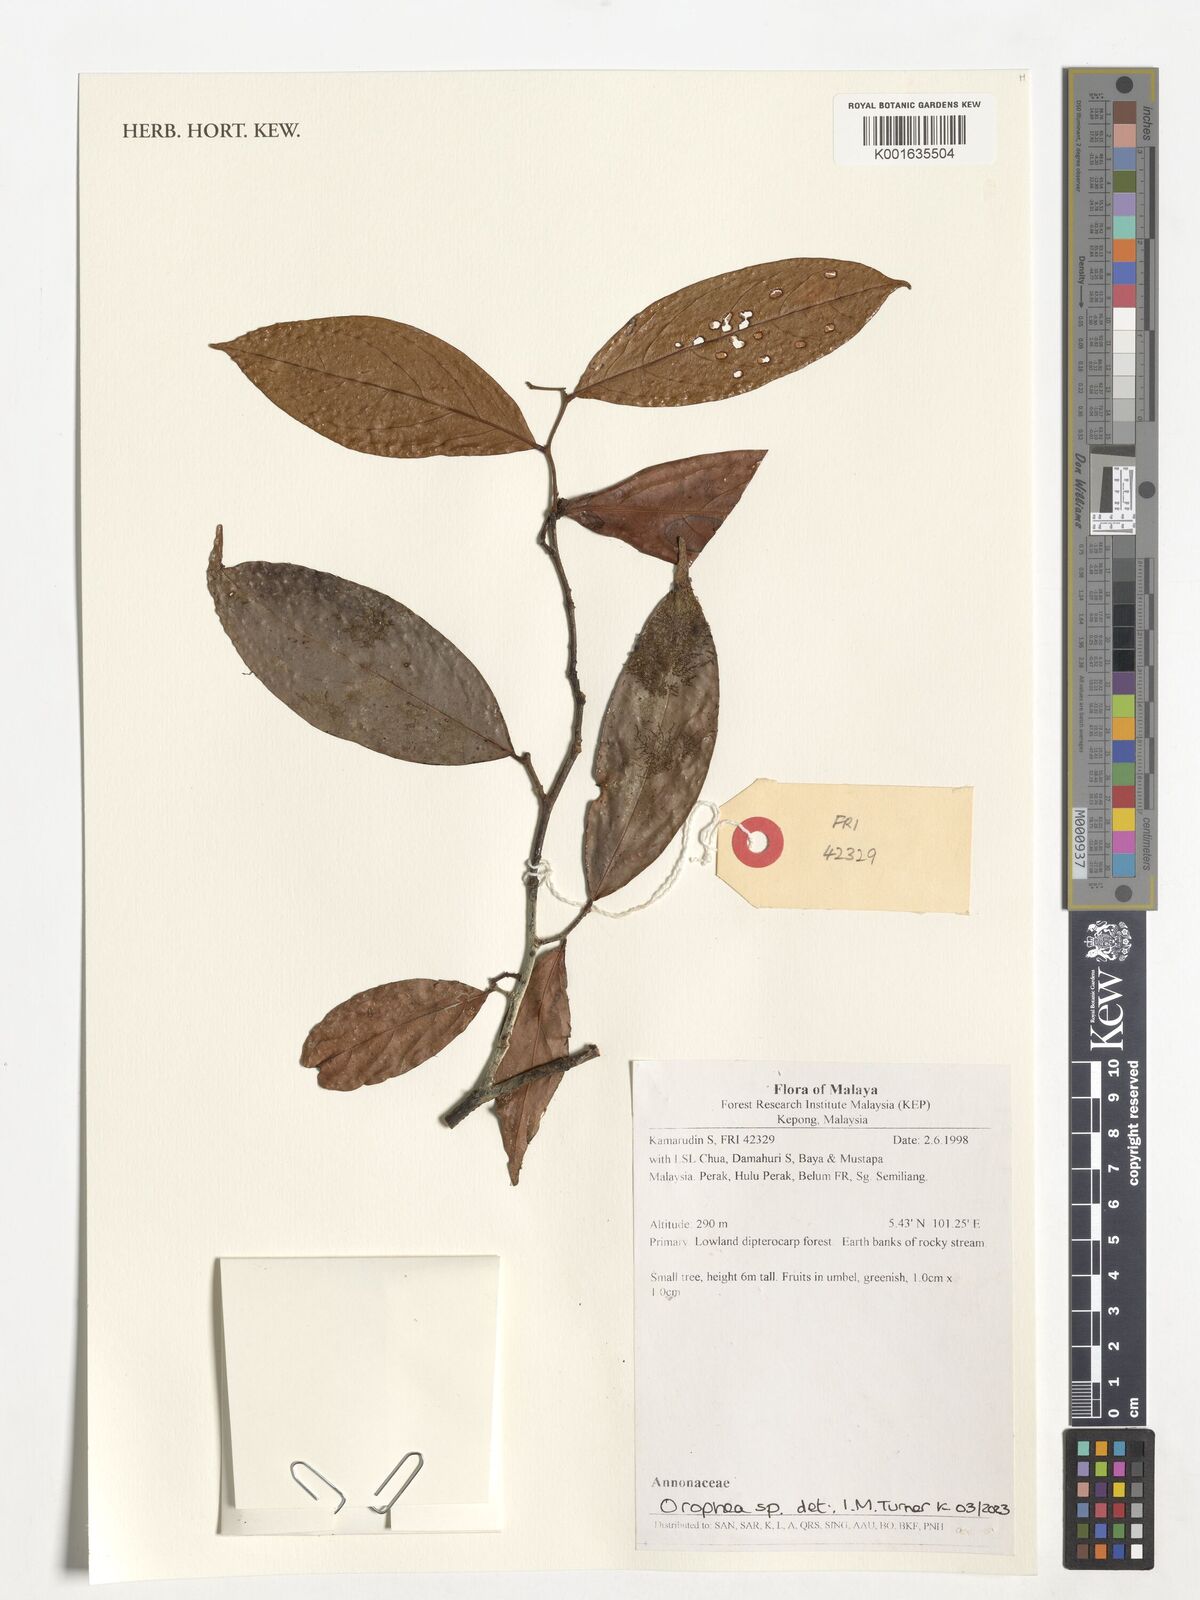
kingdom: Plantae
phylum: Tracheophyta
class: Magnoliopsida
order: Magnoliales
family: Annonaceae
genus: Orophea
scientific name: Orophea
